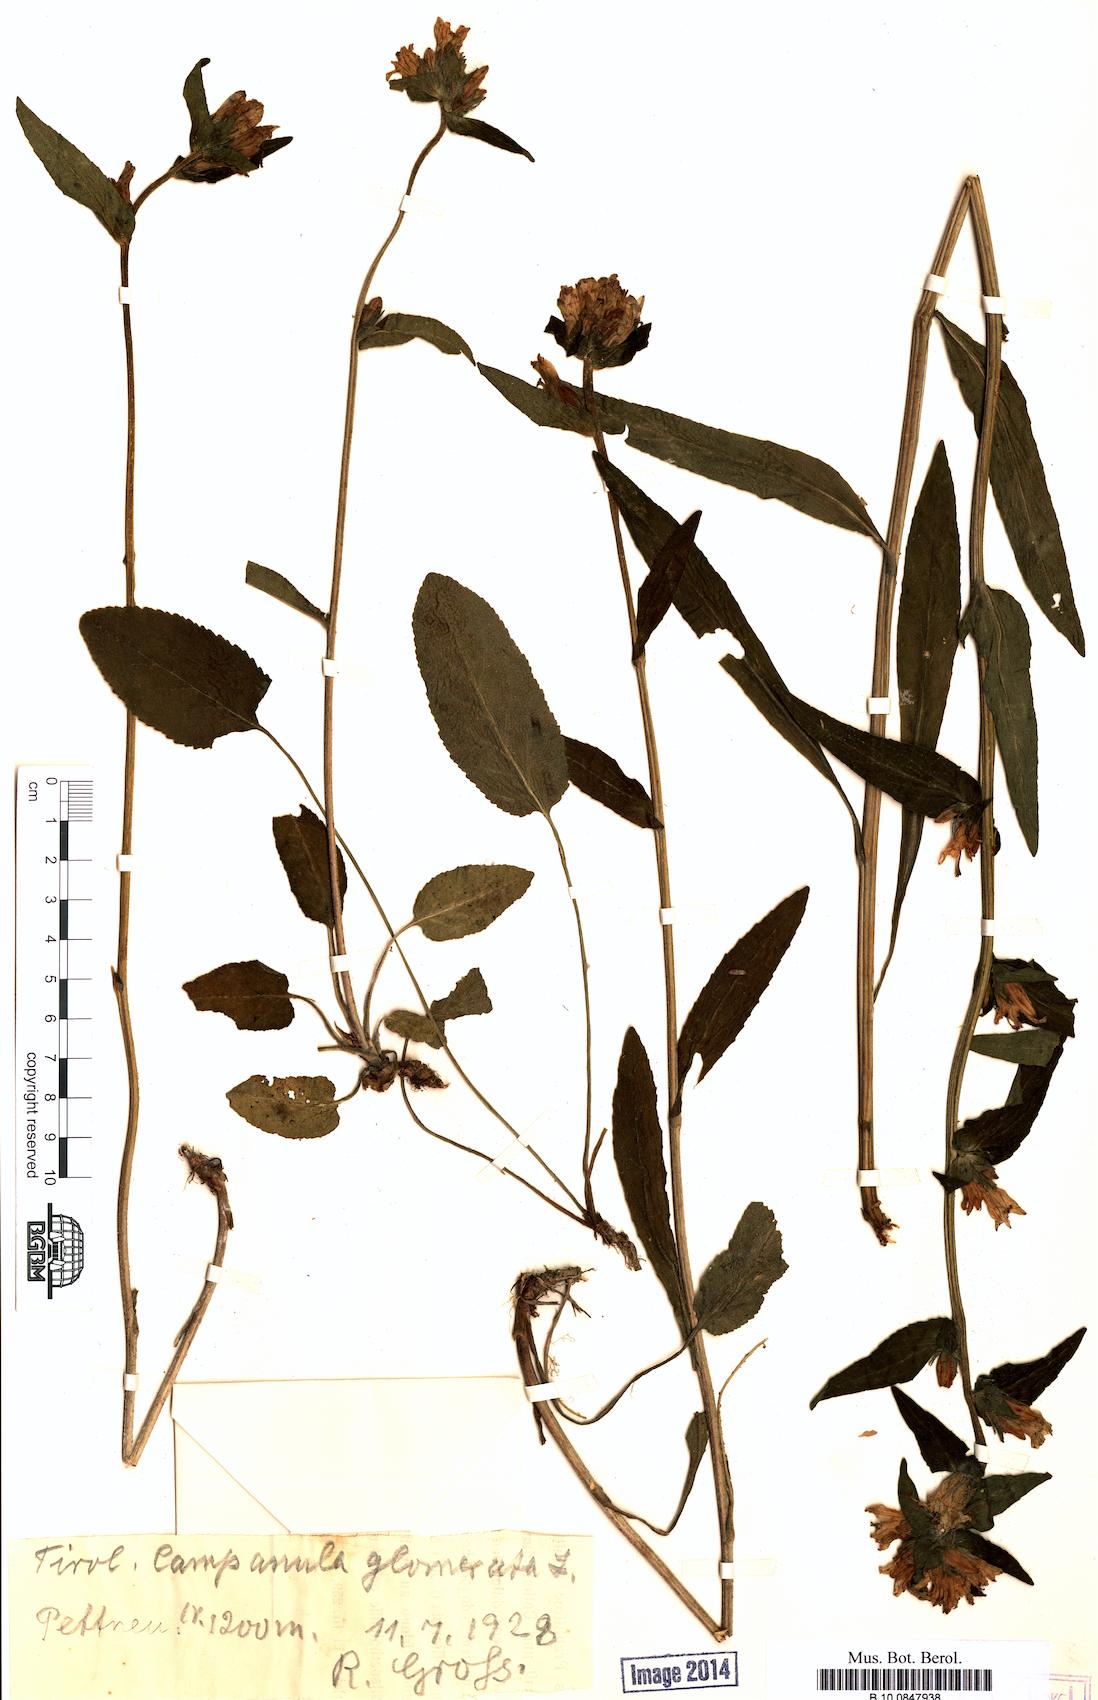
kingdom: Plantae
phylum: Tracheophyta
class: Magnoliopsida
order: Asterales
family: Campanulaceae
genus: Campanula
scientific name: Campanula glomerata
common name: Clustered bellflower
